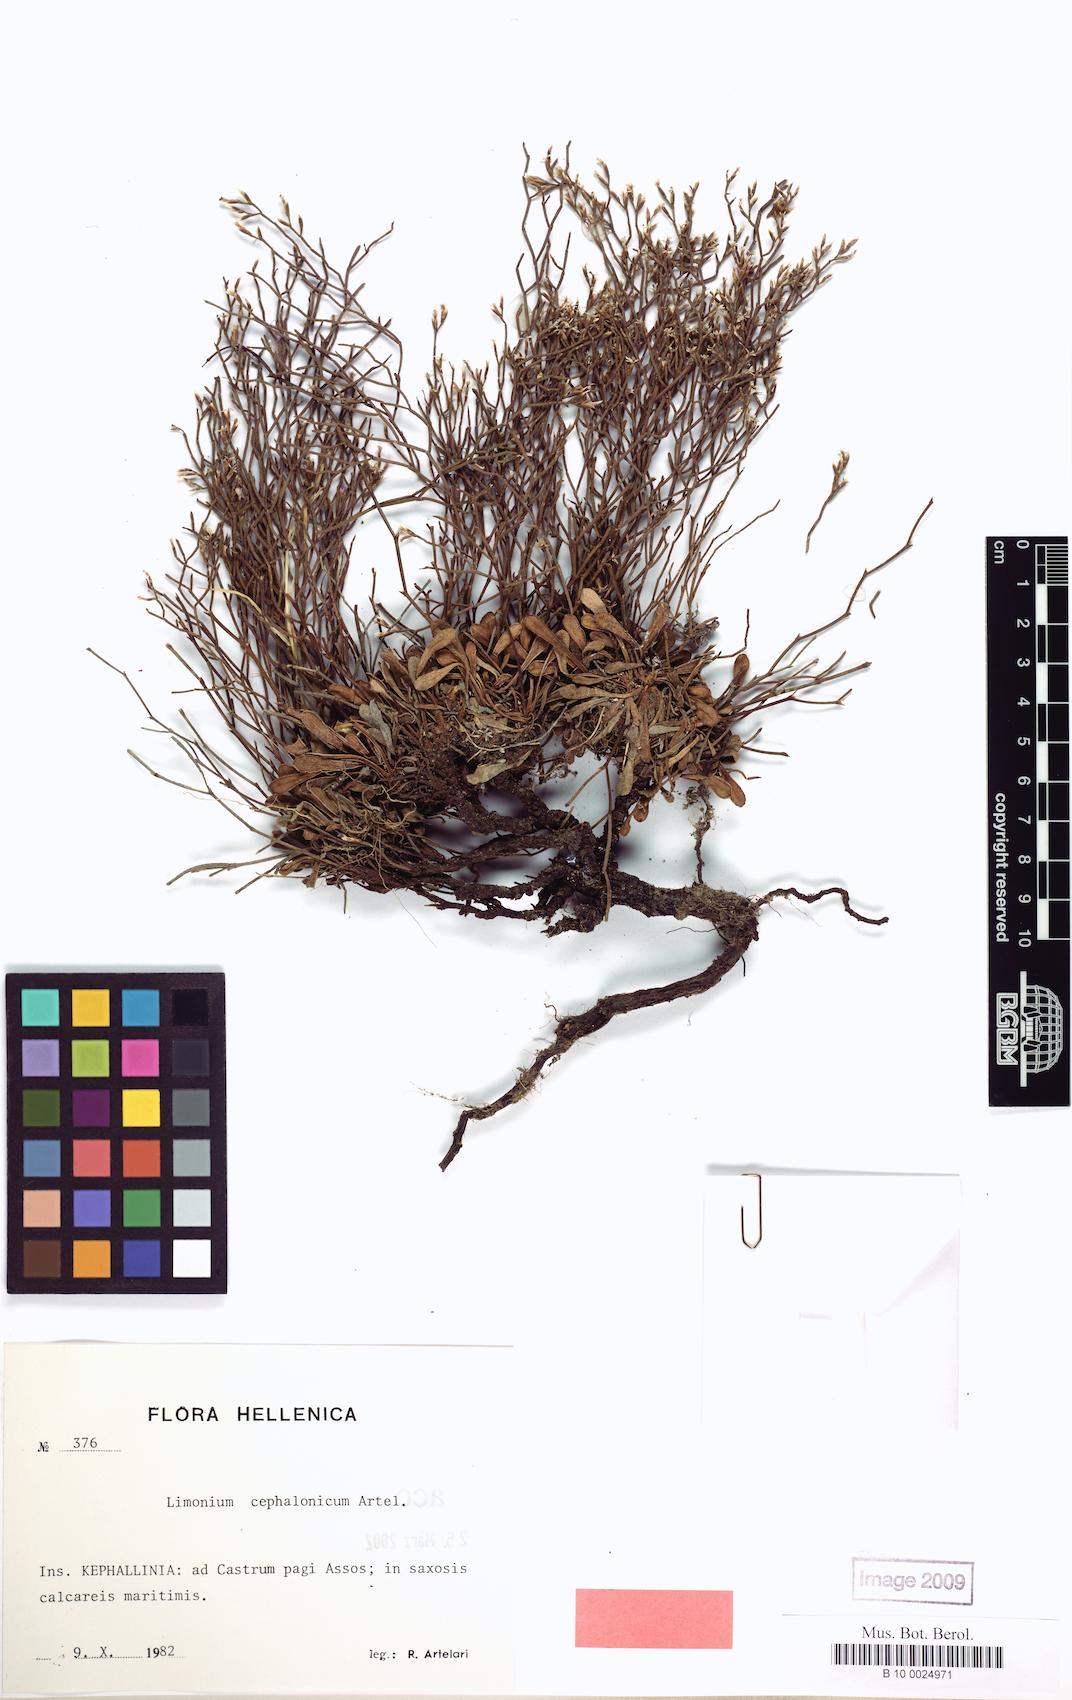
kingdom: Plantae
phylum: Tracheophyta
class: Magnoliopsida
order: Caryophyllales
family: Plumbaginaceae
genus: Limonium
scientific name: Limonium cephalonicum
